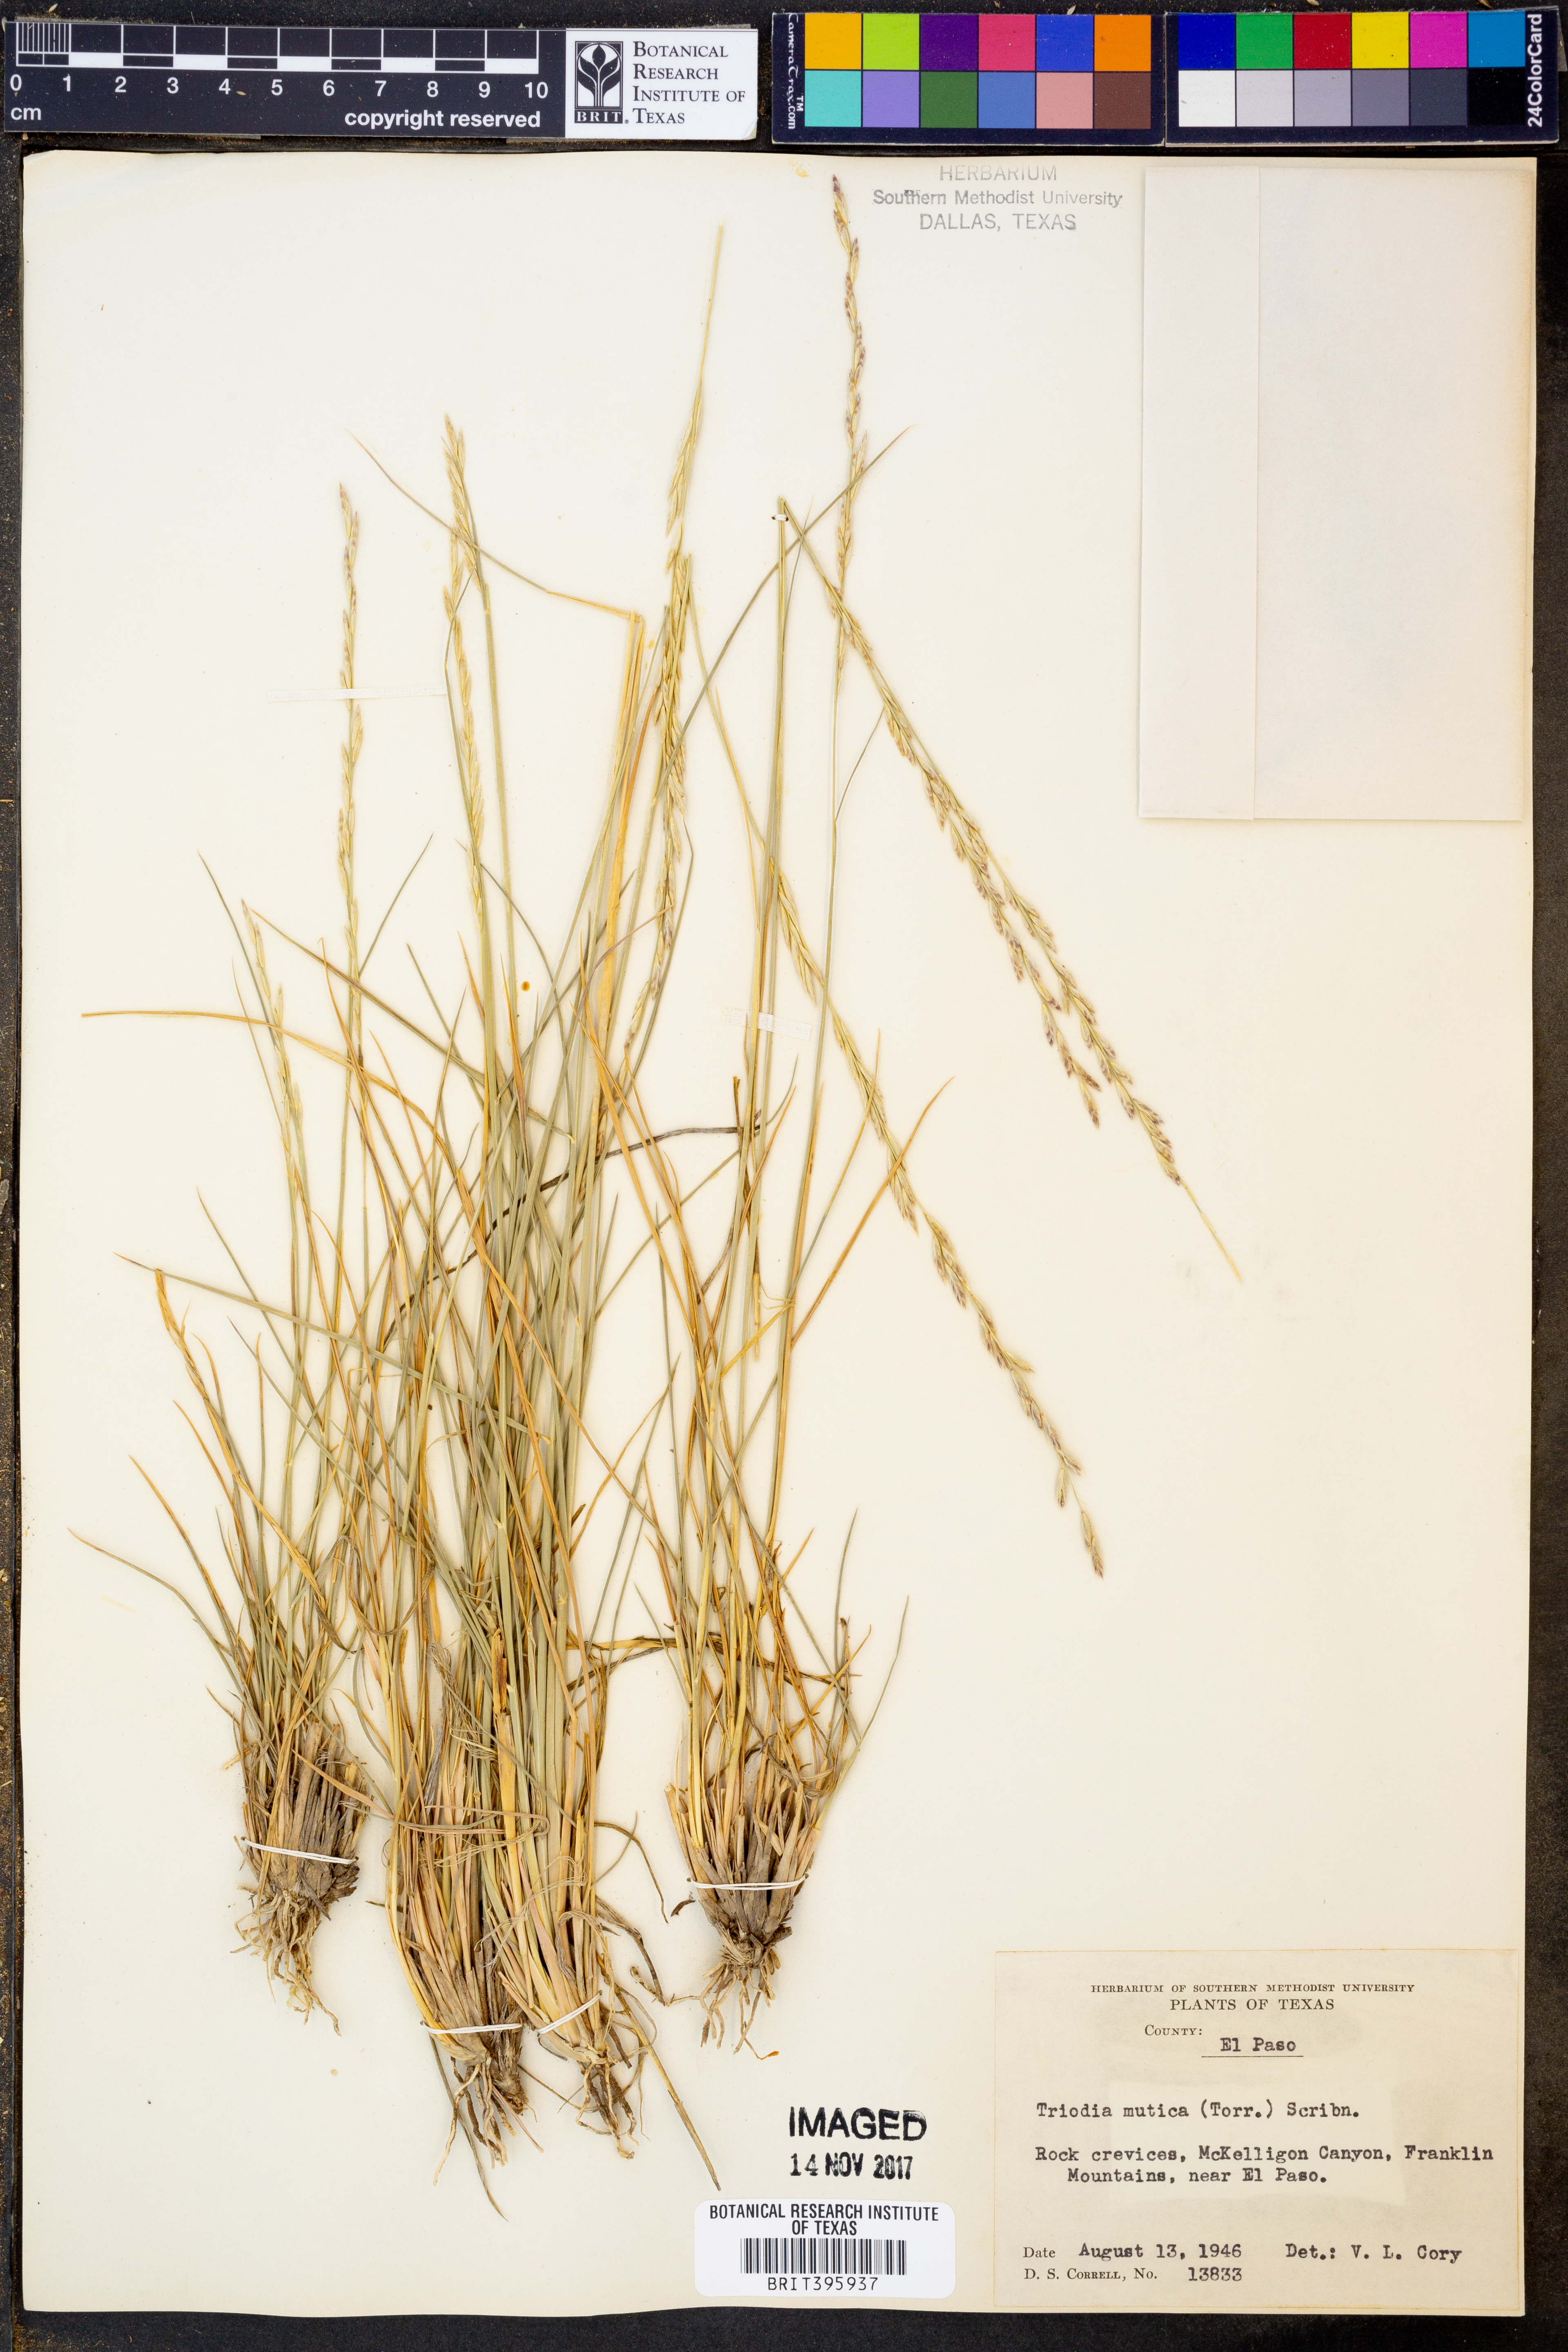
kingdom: Plantae
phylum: Tracheophyta
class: Liliopsida
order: Poales
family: Poaceae
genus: Tridentopsis
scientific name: Tridentopsis mutica
